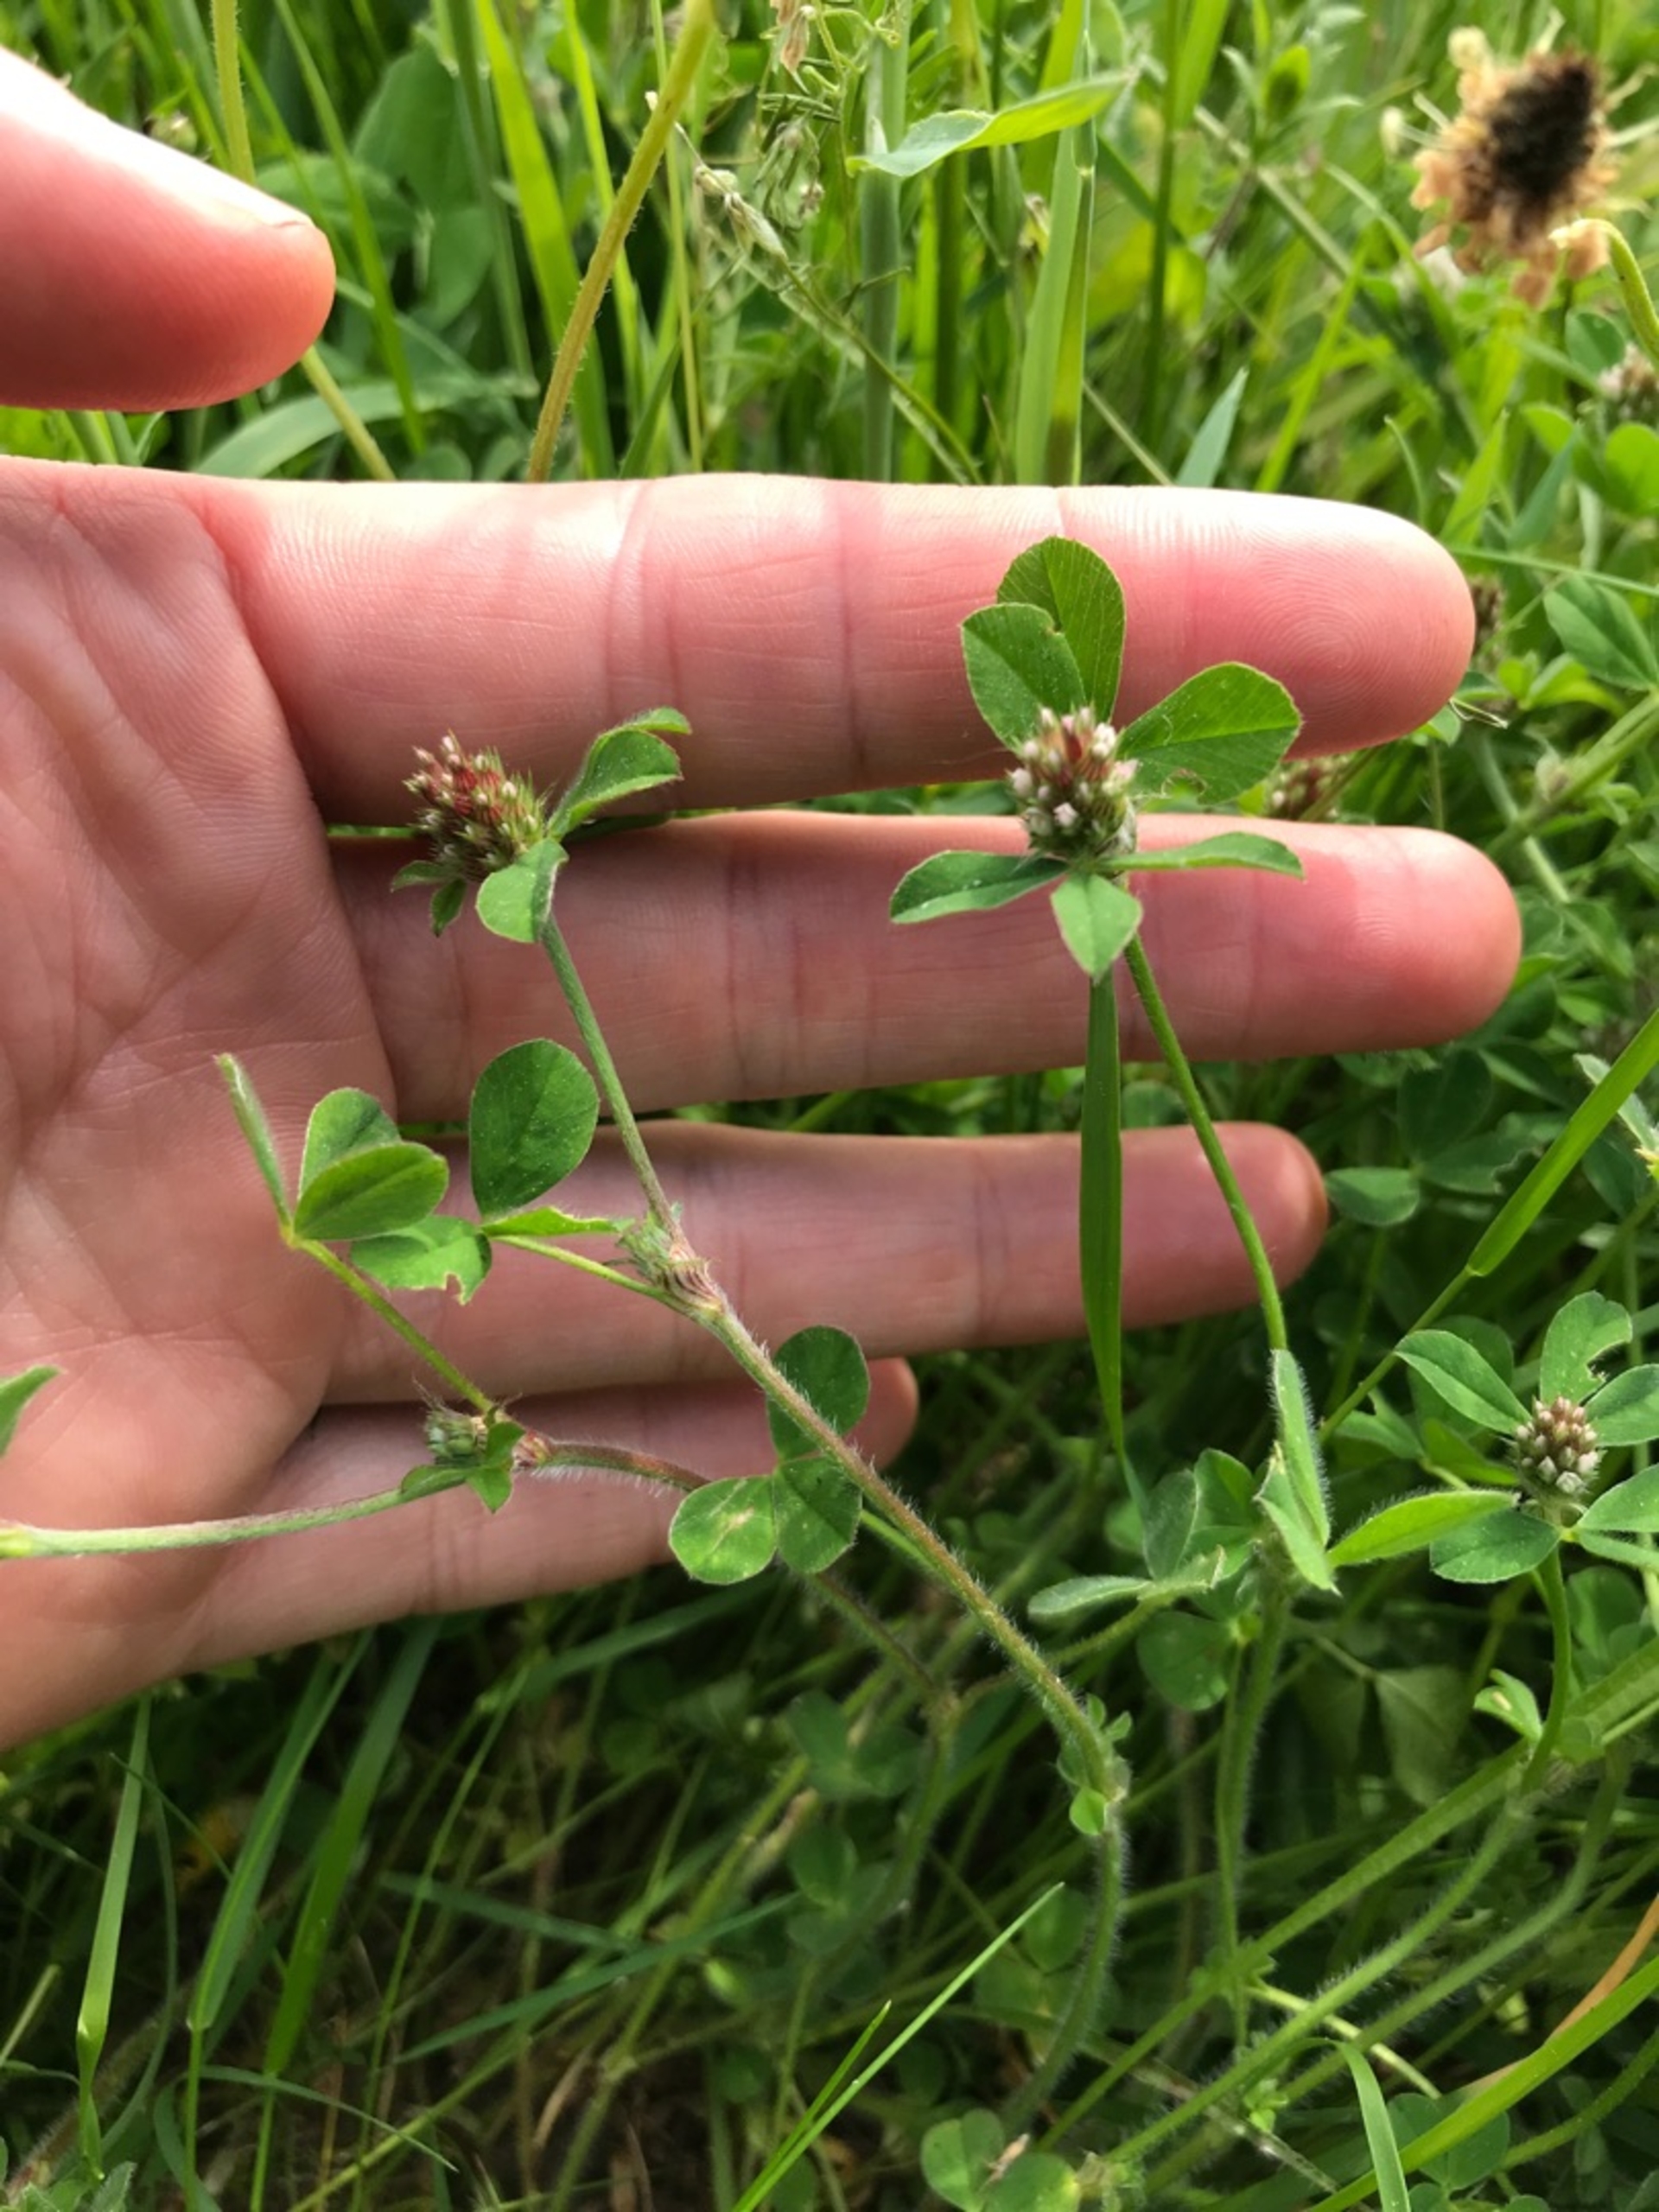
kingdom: Plantae
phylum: Tracheophyta
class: Magnoliopsida
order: Fabales
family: Fabaceae
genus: Trifolium
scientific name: Trifolium striatum
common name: Stribet kløver
